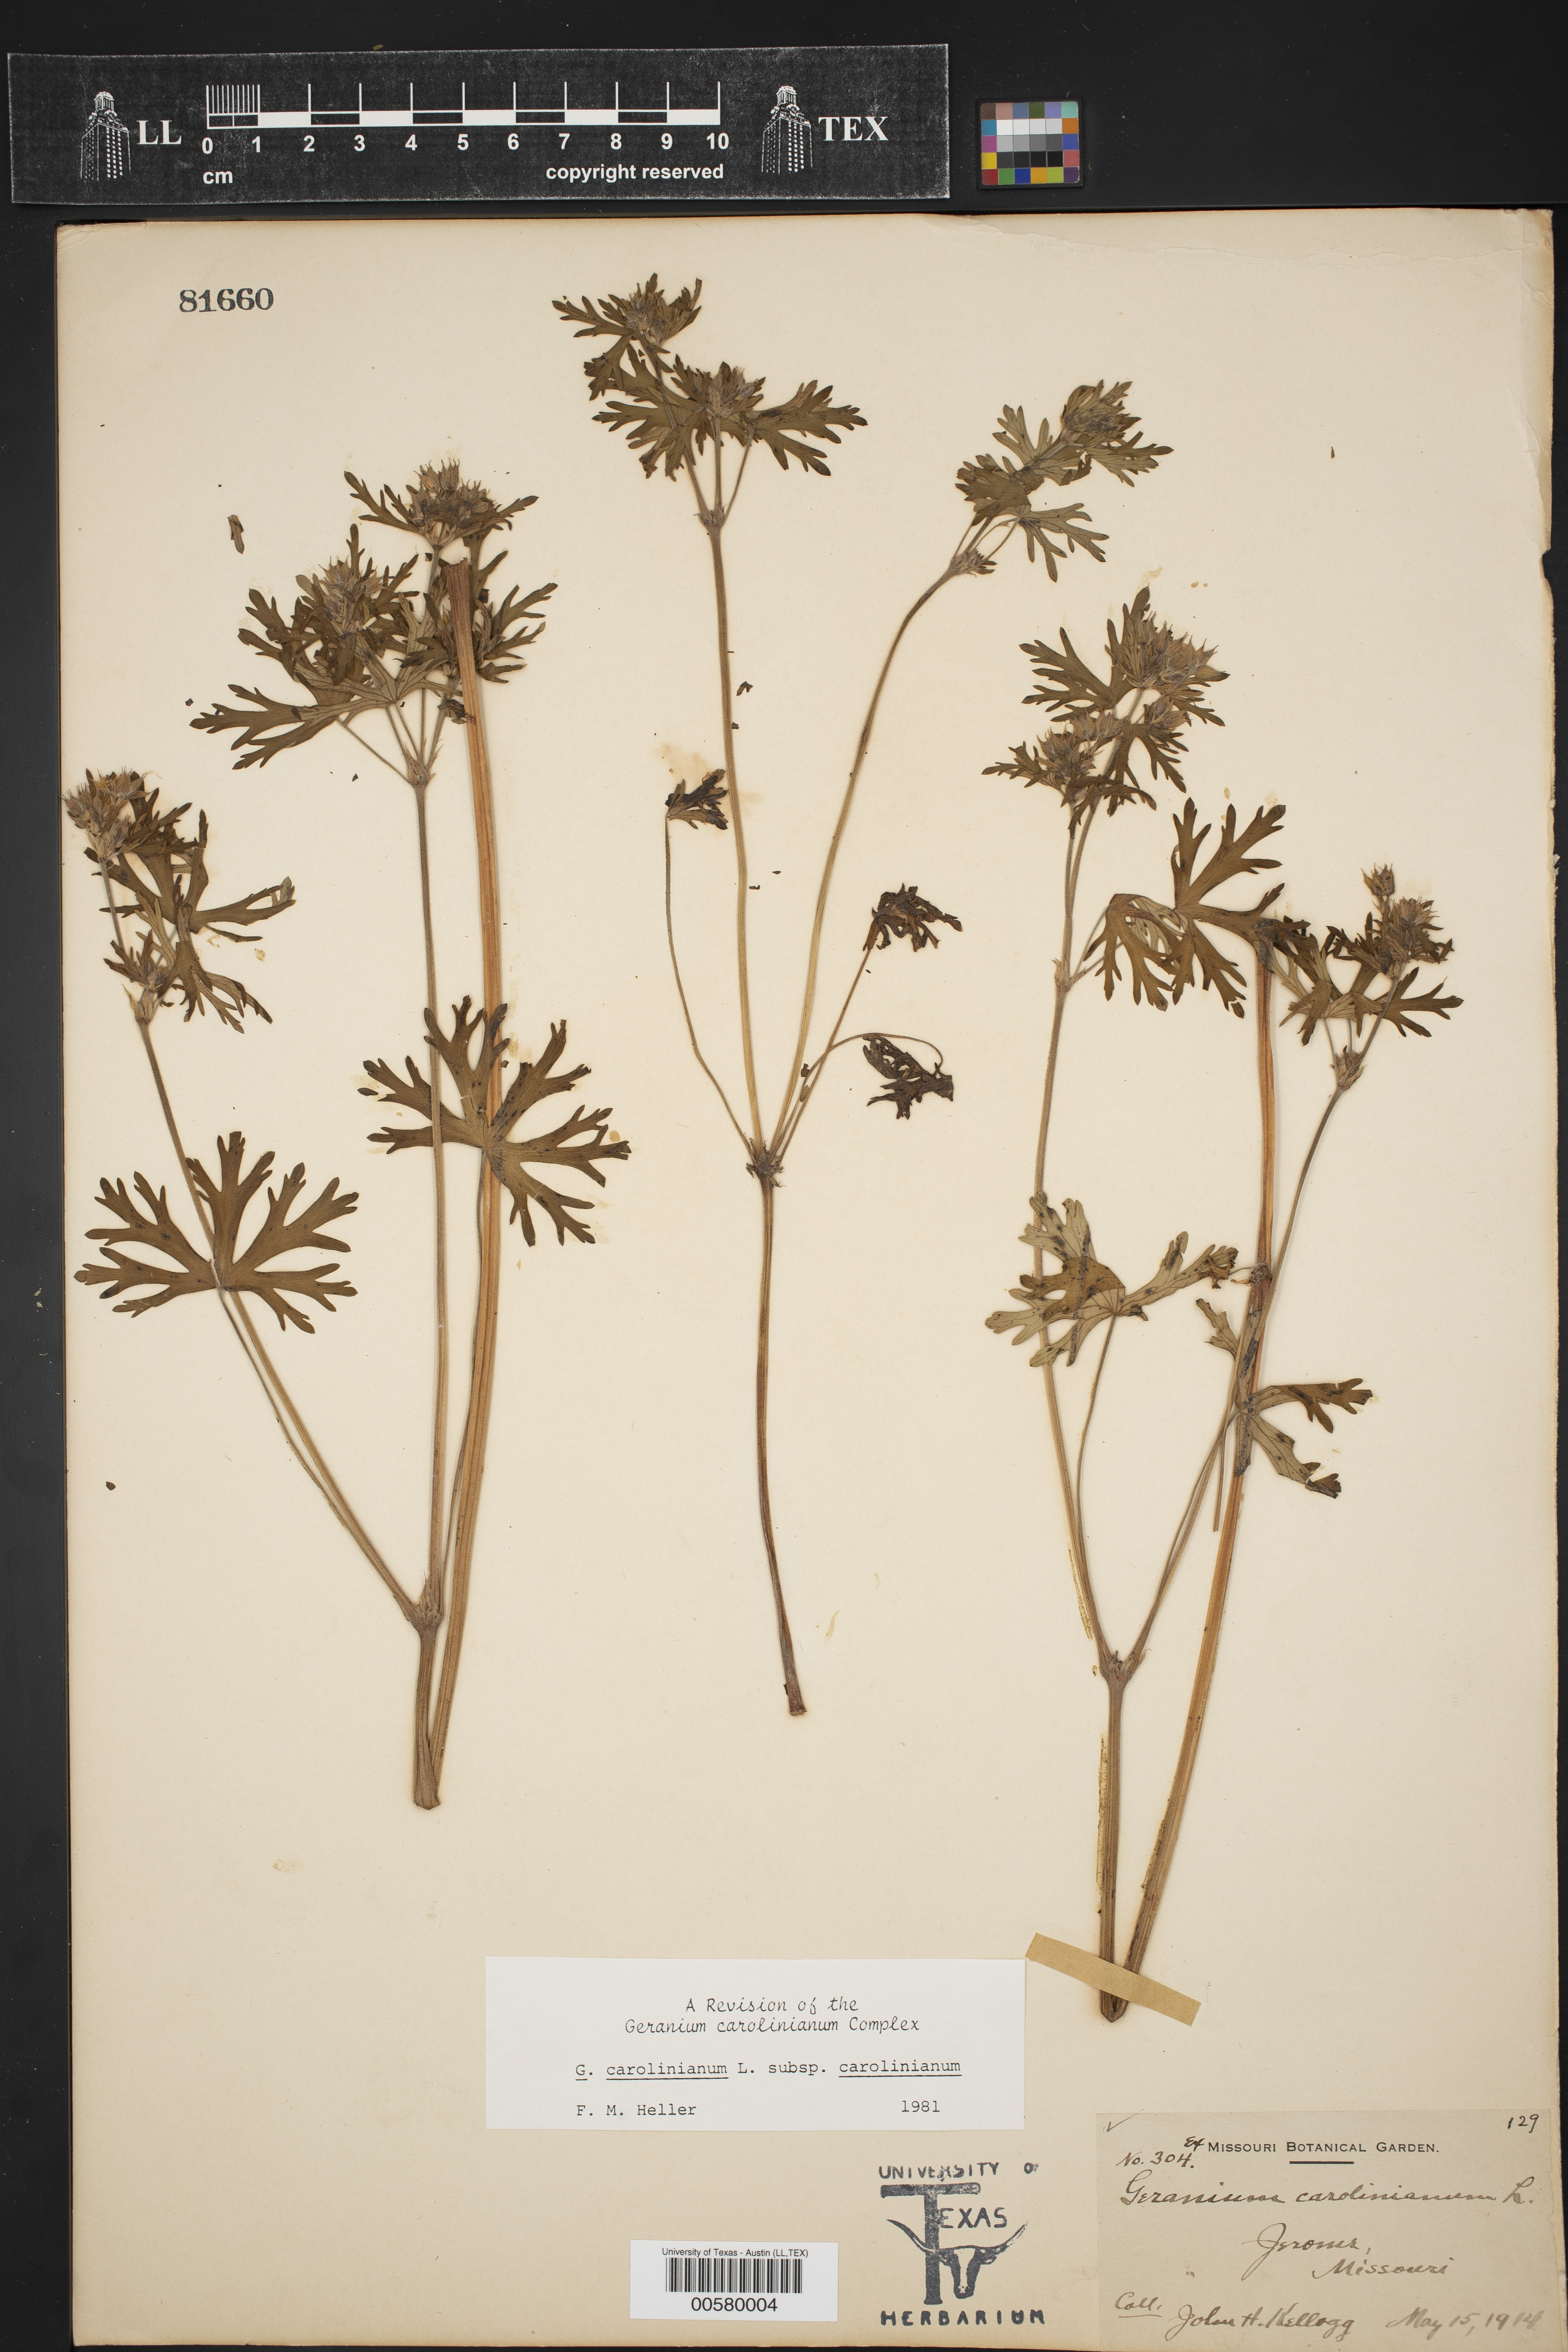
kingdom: Plantae
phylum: Tracheophyta
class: Magnoliopsida
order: Geraniales
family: Geraniaceae
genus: Geranium
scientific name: Geranium carolinianum
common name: Carolina crane's-bill
